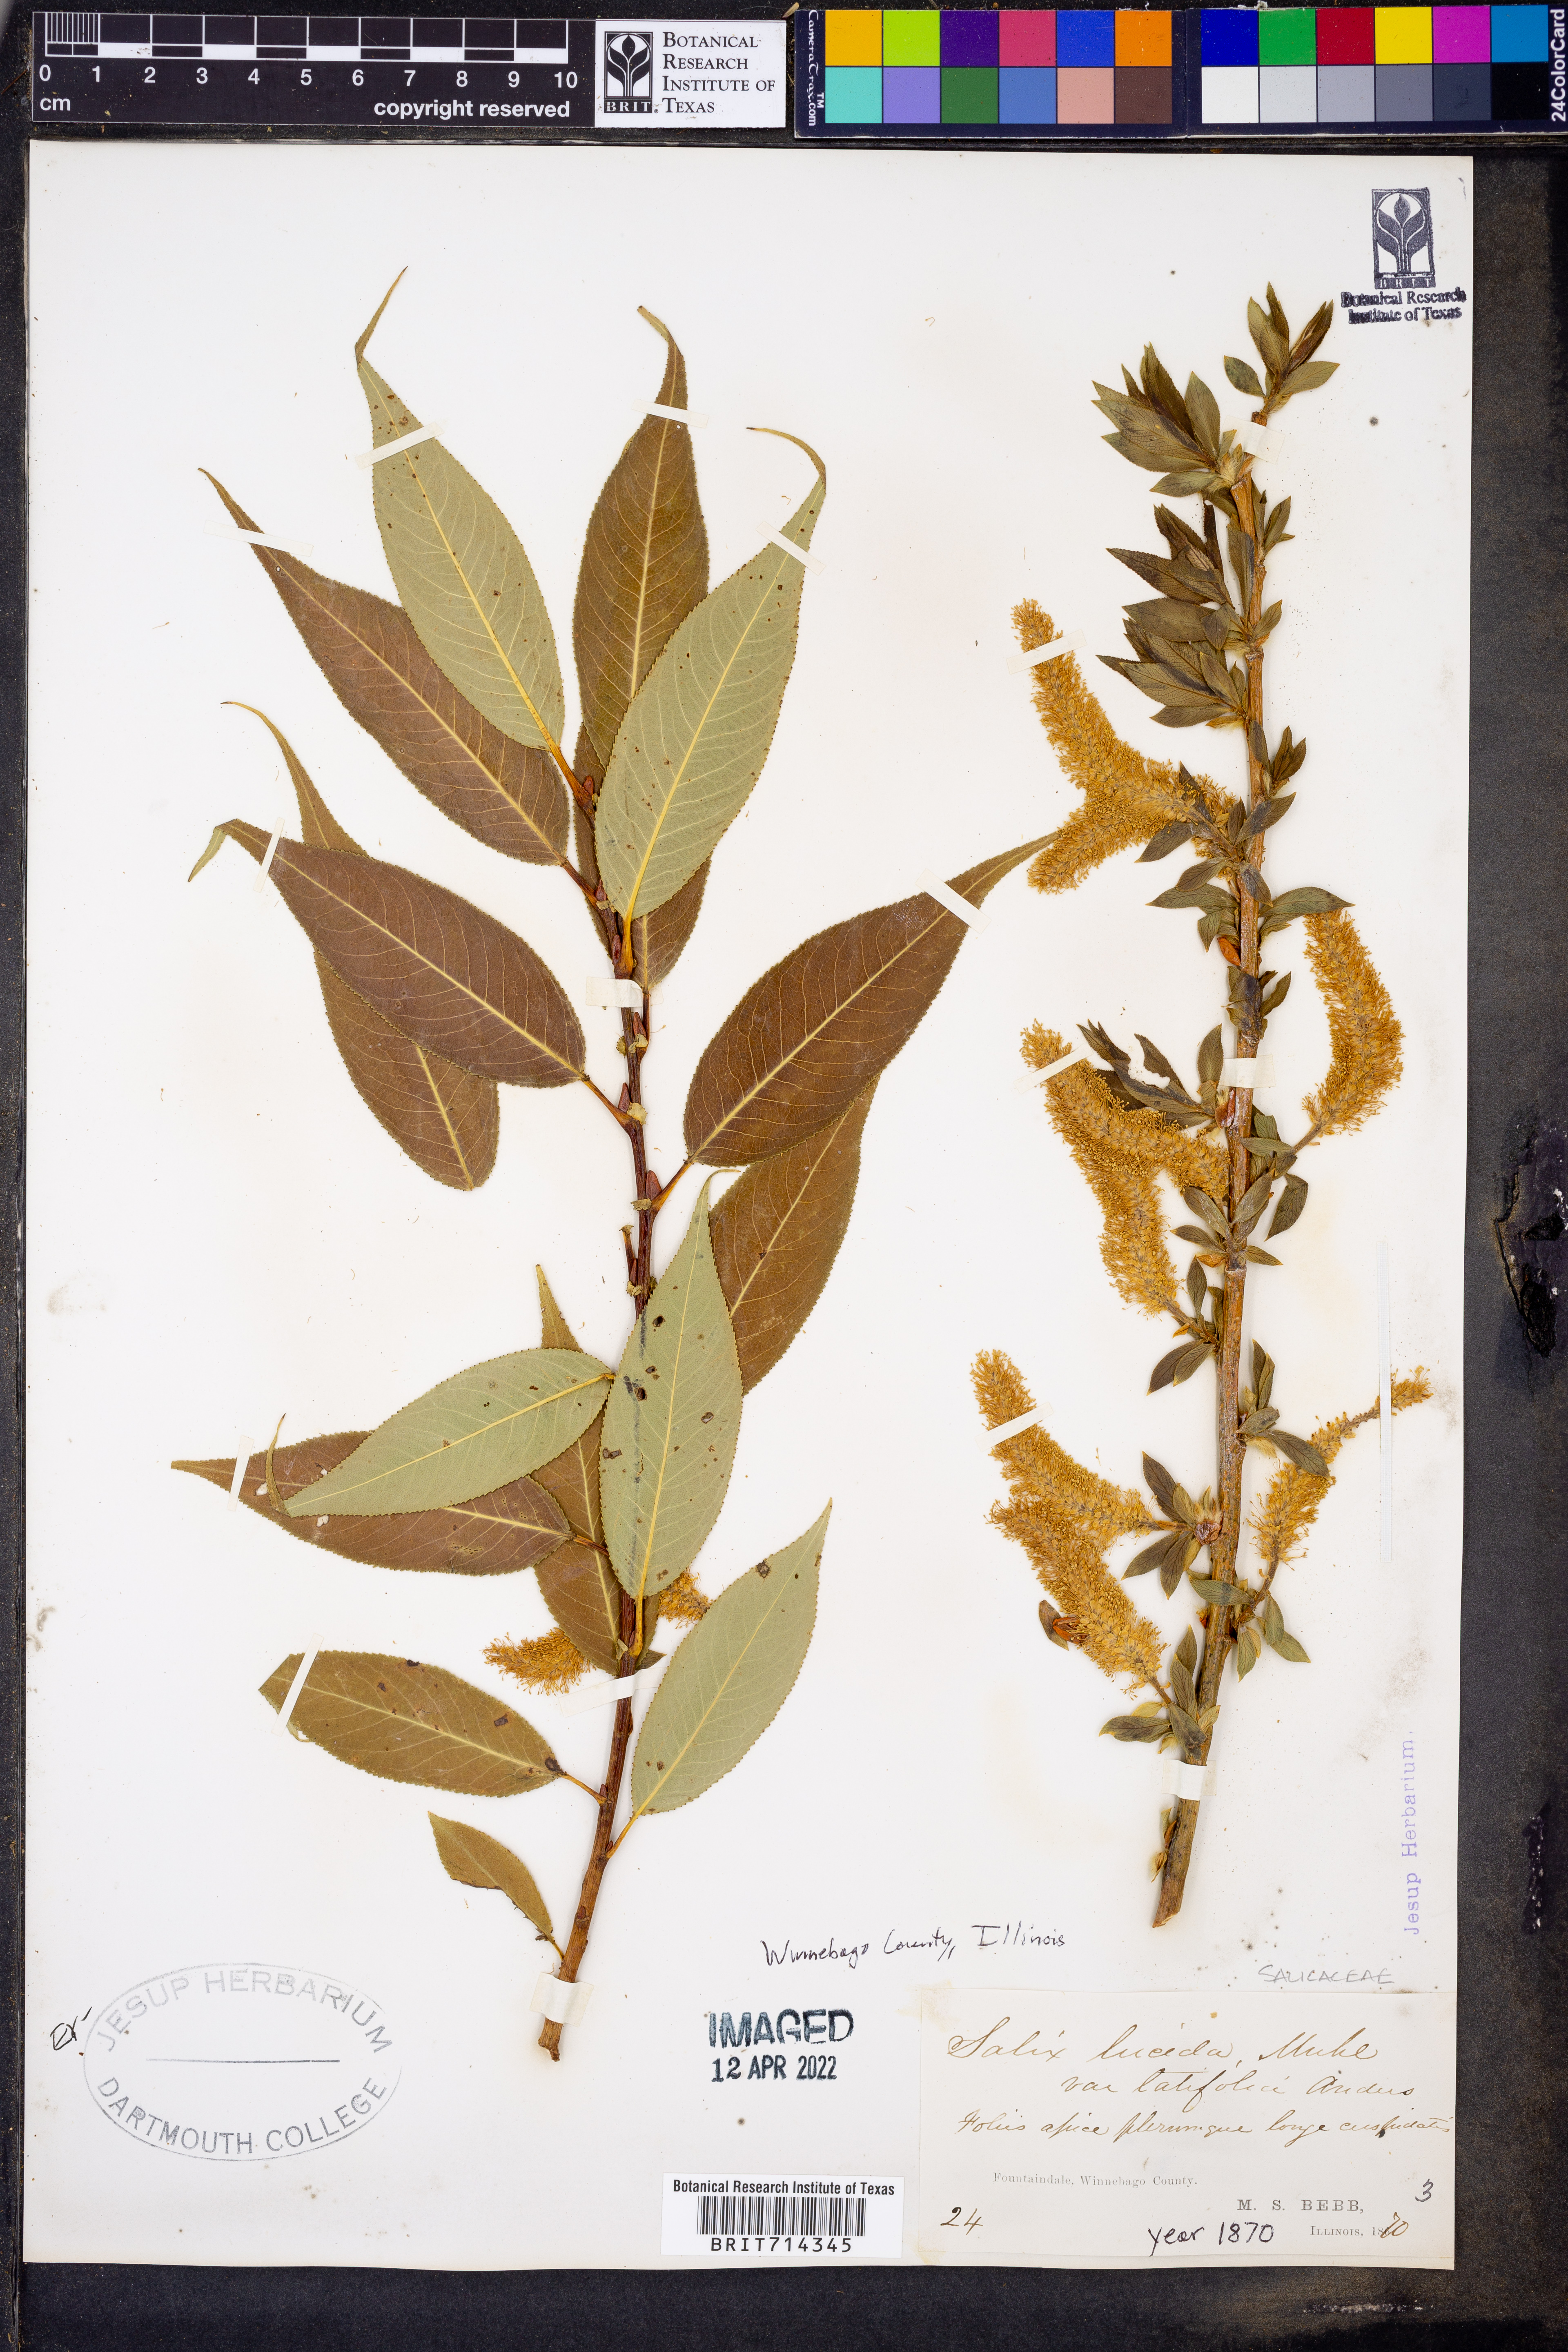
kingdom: Plantae
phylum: Tracheophyta
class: Magnoliopsida
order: Malpighiales
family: Salicaceae
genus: Salix
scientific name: Salix lucida
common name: Shining willow
